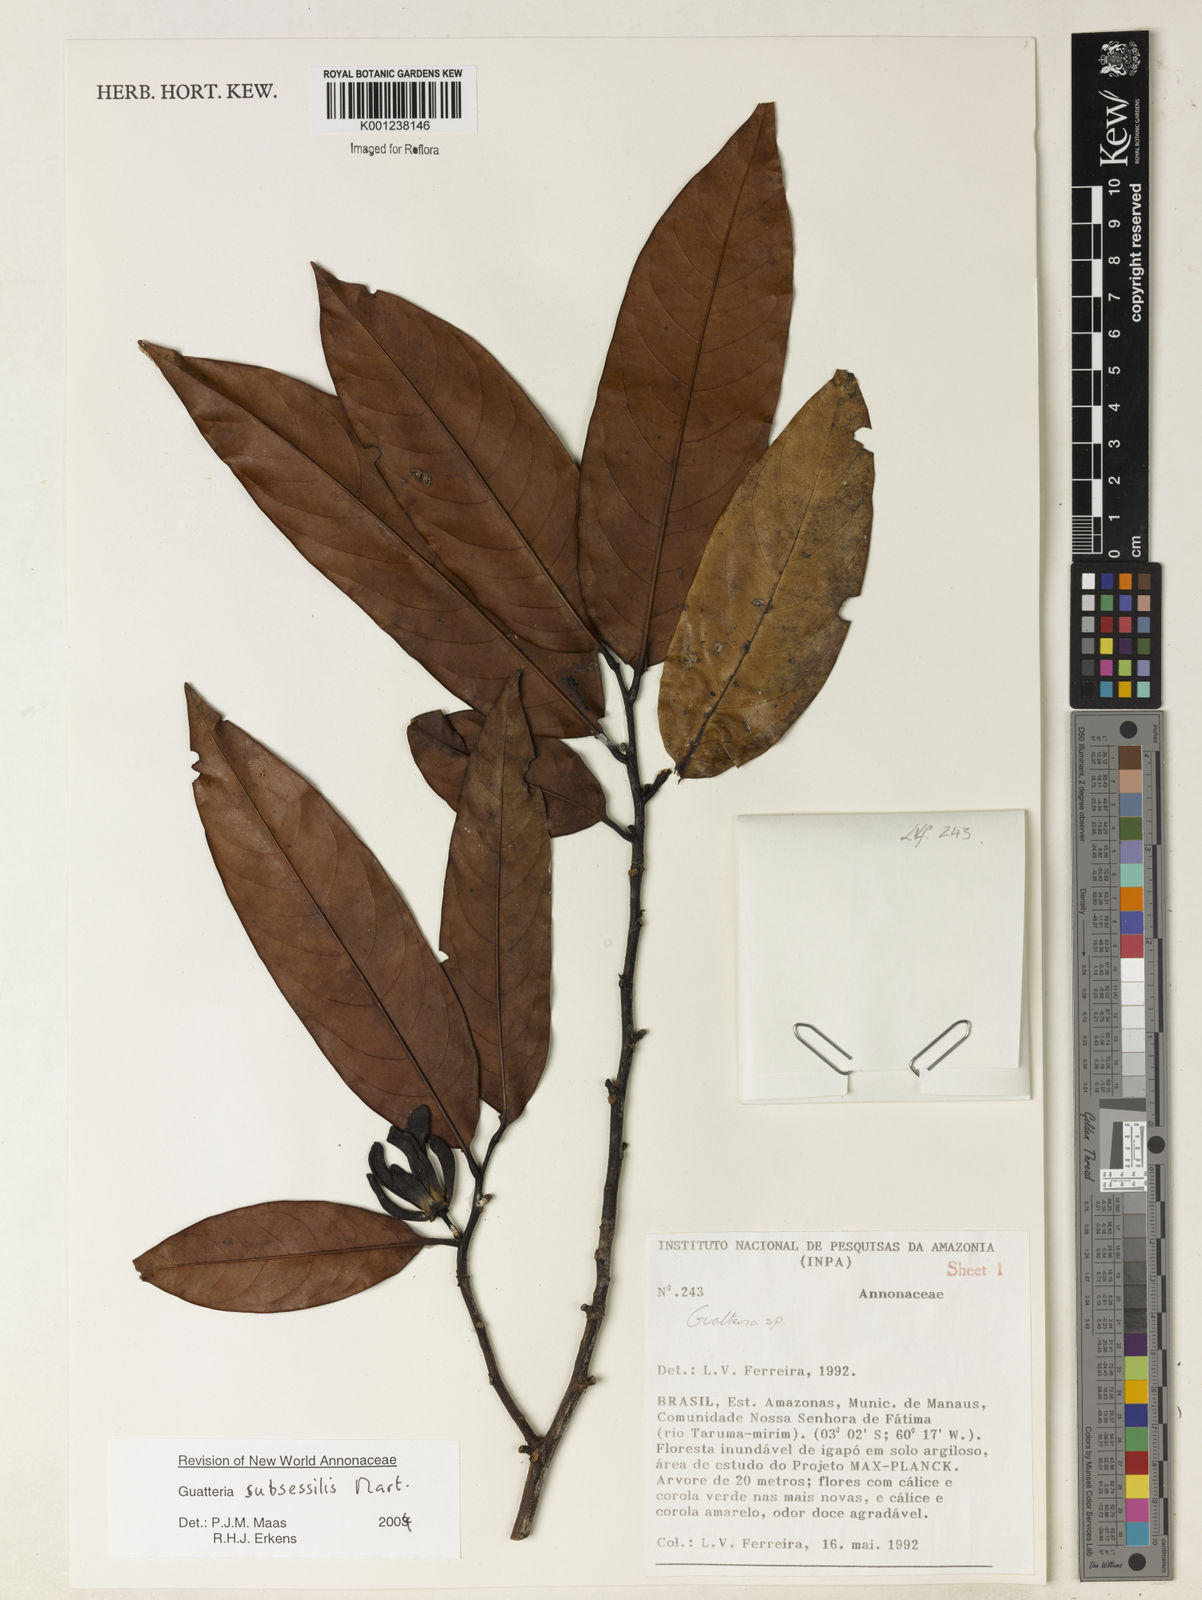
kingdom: Plantae
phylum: Tracheophyta
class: Magnoliopsida
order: Magnoliales
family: Annonaceae
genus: Guatteria
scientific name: Guatteria subsessilis
